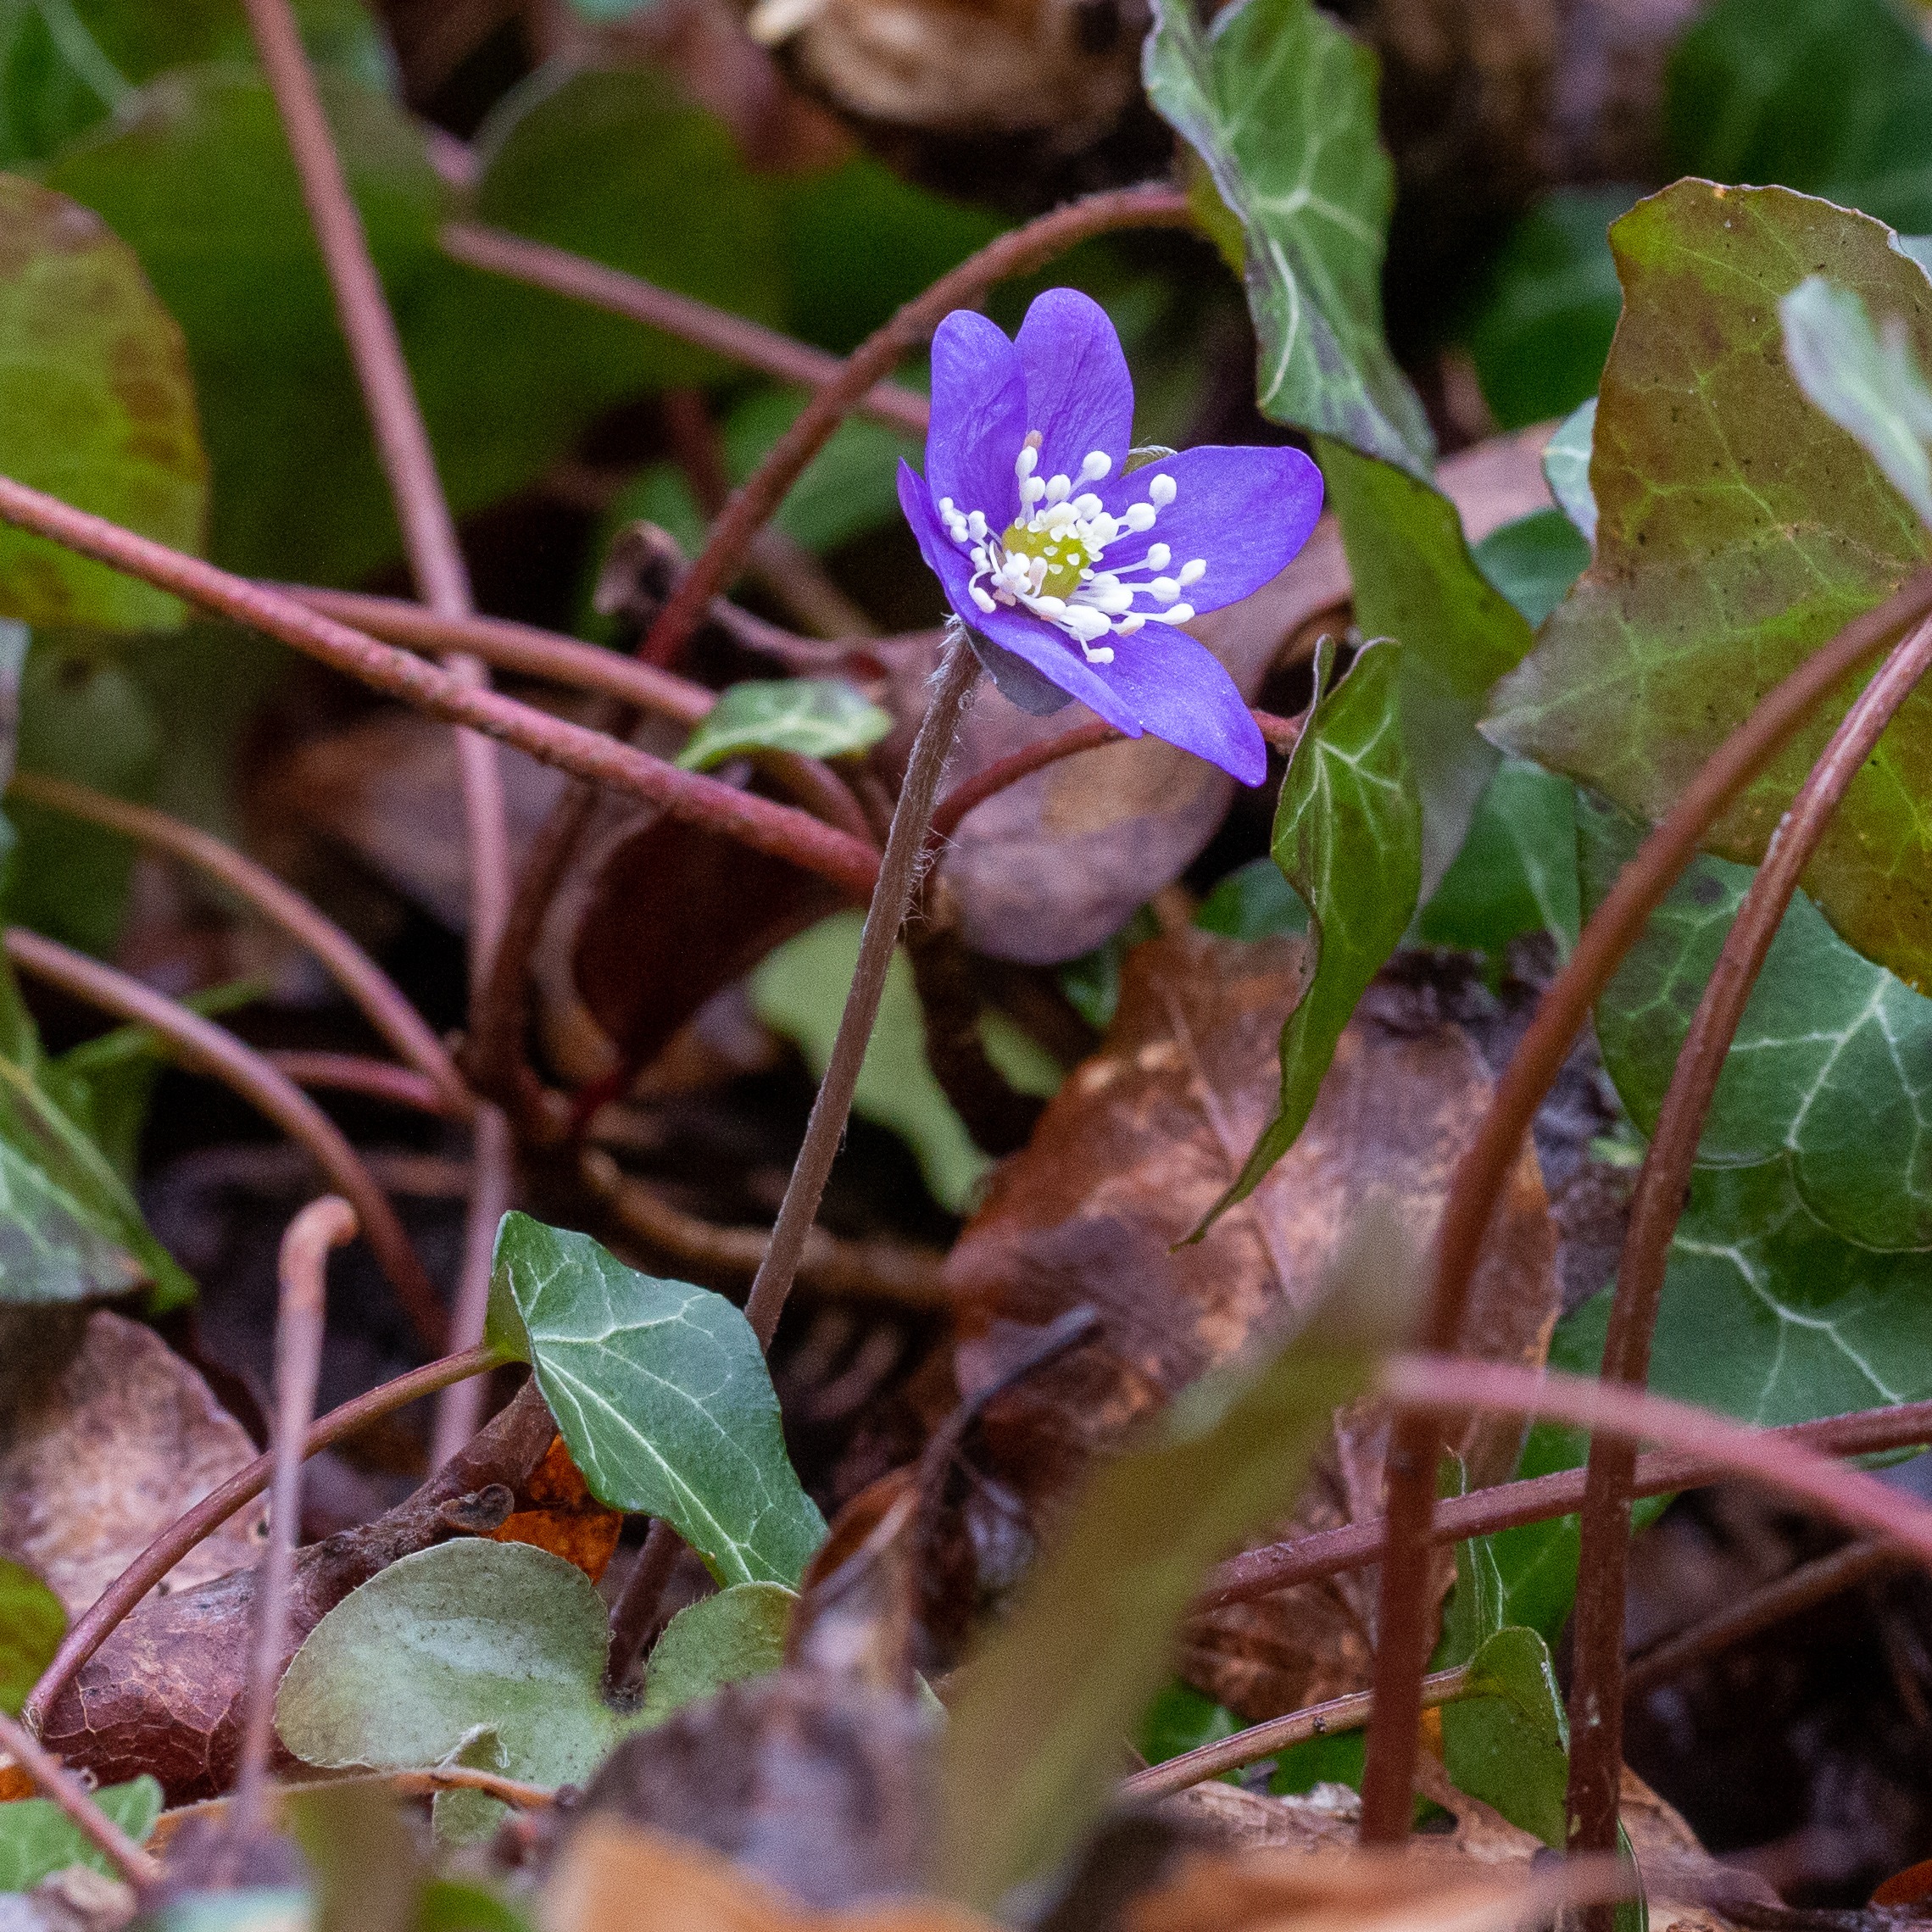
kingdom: Plantae
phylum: Tracheophyta
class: Magnoliopsida
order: Ranunculales
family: Ranunculaceae
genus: Hepatica
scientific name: Hepatica nobilis
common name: Blå anemone
